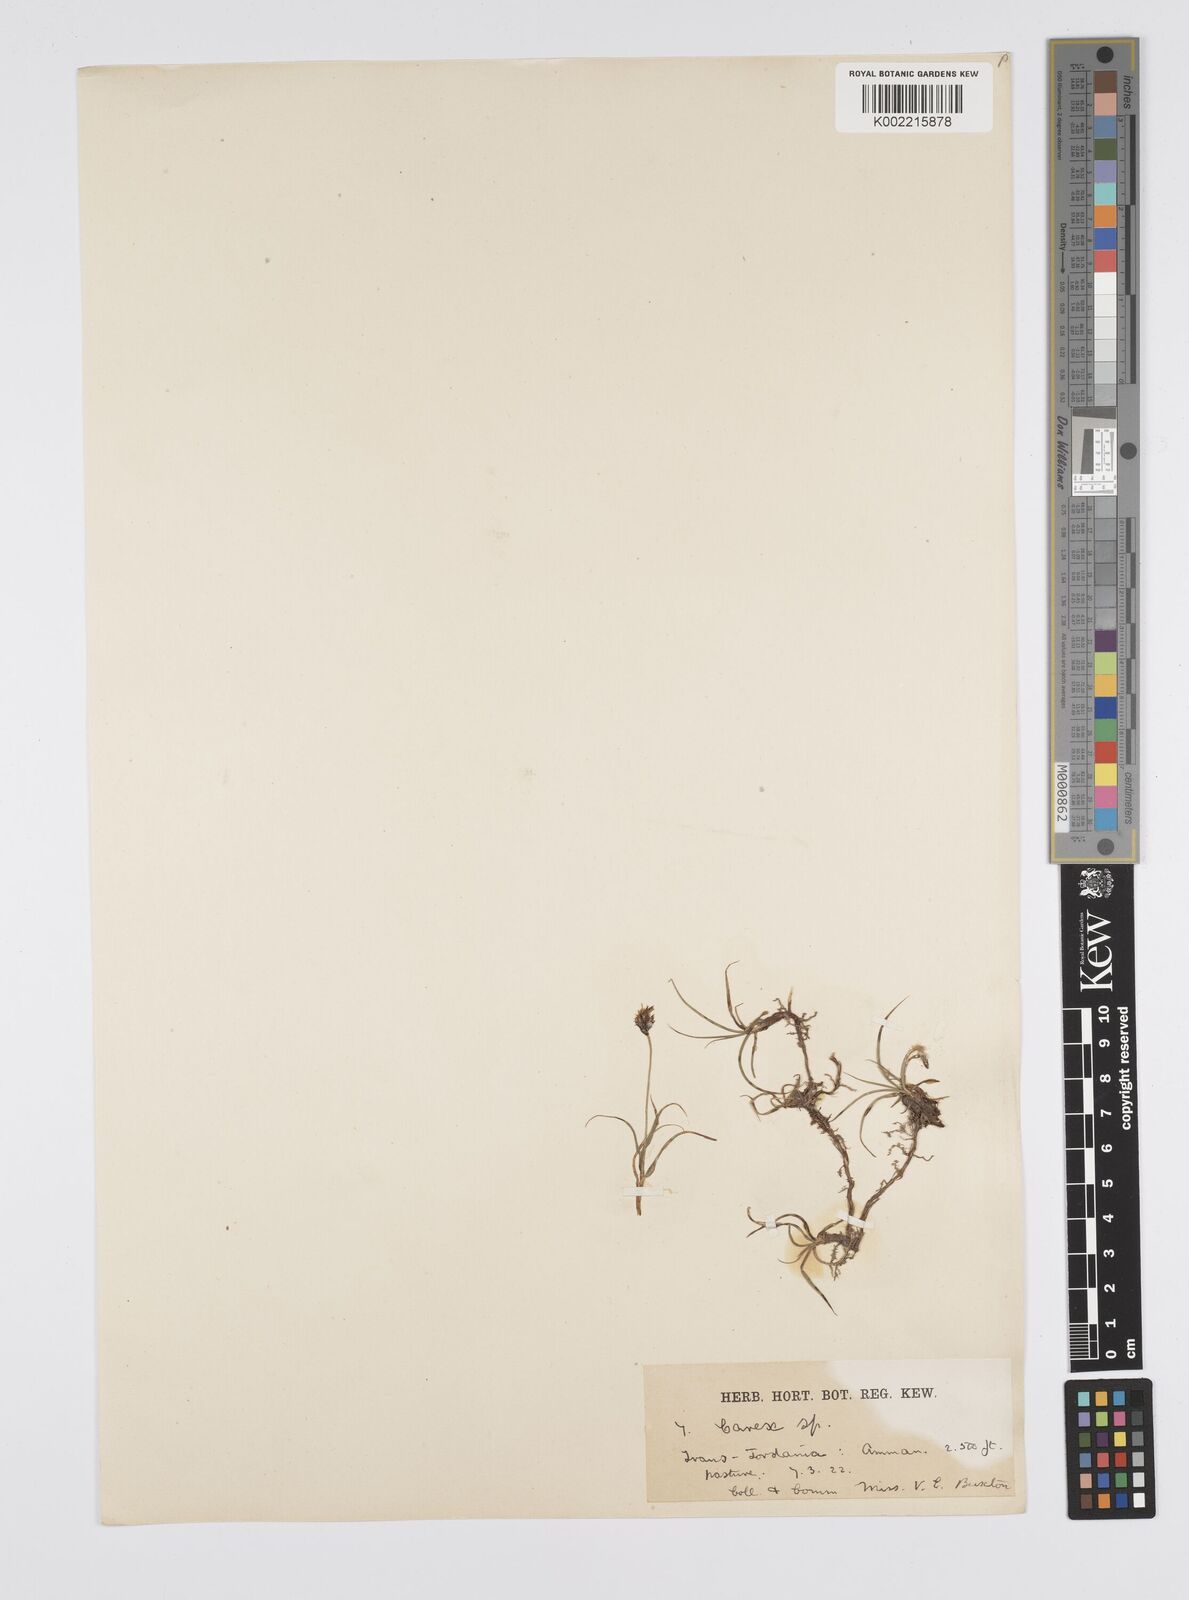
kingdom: Plantae
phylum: Tracheophyta
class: Liliopsida
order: Poales
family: Cyperaceae
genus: Carex
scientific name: Carex pseudofoetida
